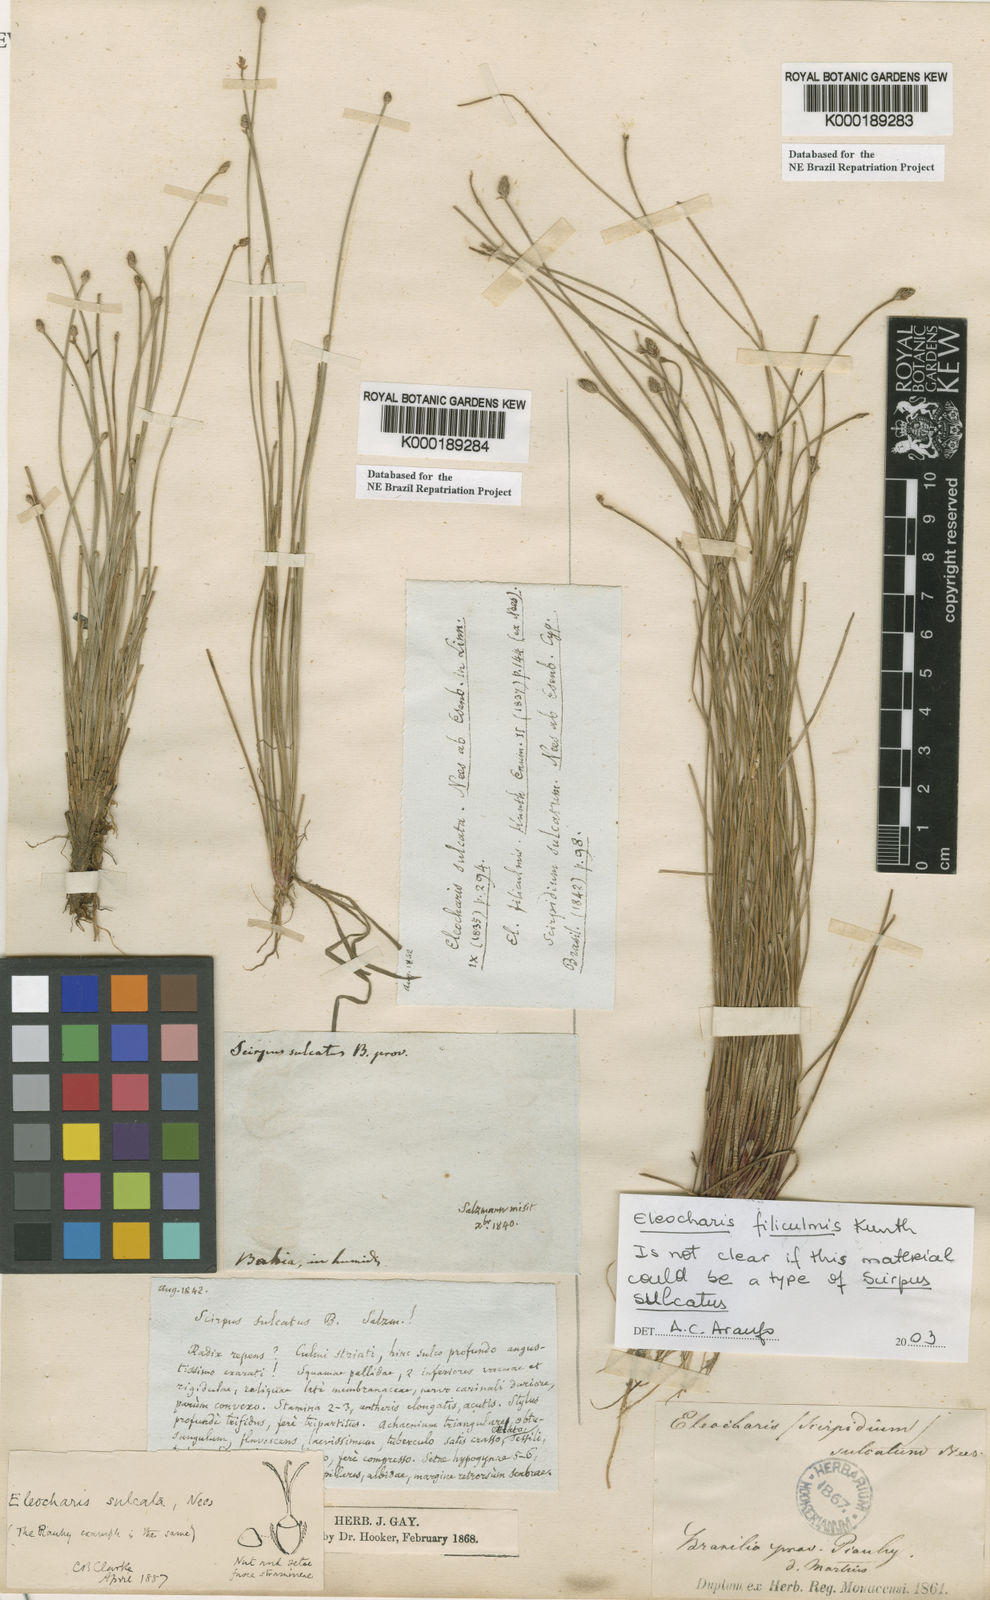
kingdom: Plantae
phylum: Tracheophyta
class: Liliopsida
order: Poales
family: Cyperaceae
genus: Eleocharis
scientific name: Eleocharis filiculmis
